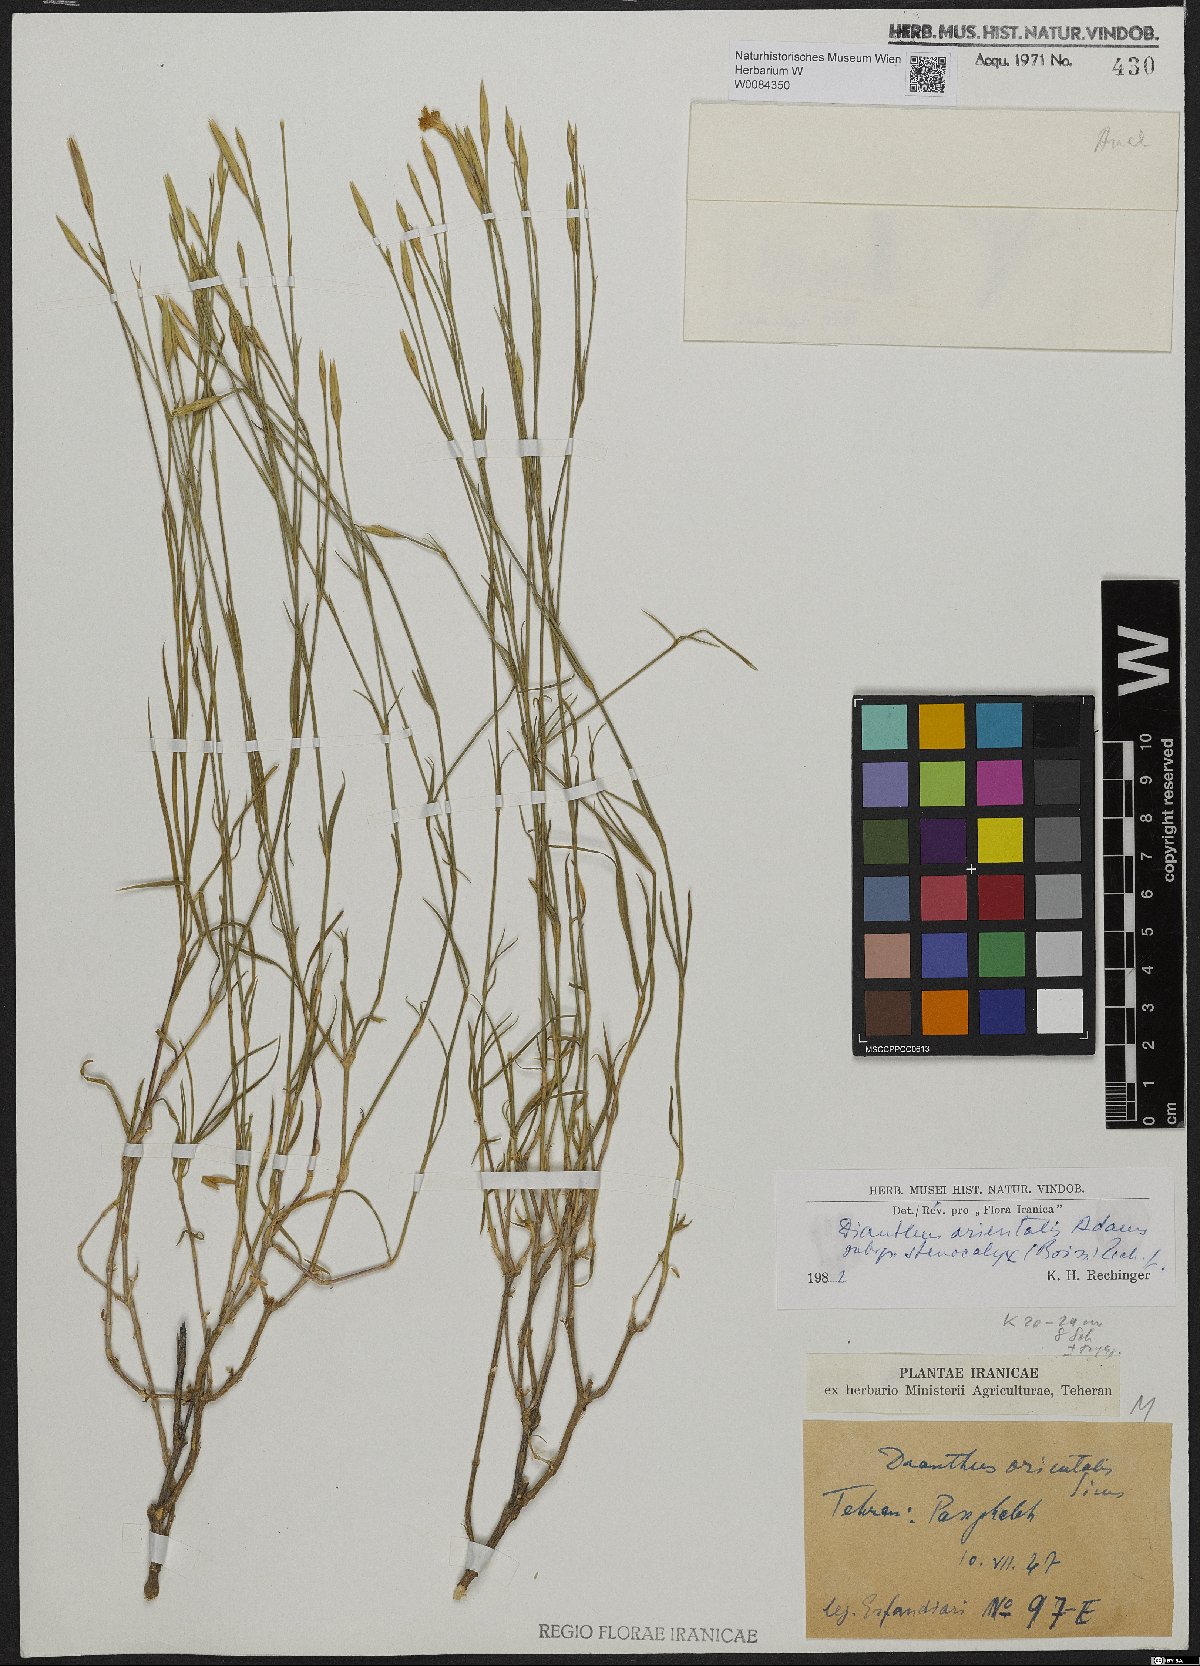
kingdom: Plantae
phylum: Tracheophyta
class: Magnoliopsida
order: Caryophyllales
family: Caryophyllaceae
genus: Dianthus
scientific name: Dianthus orientalis
